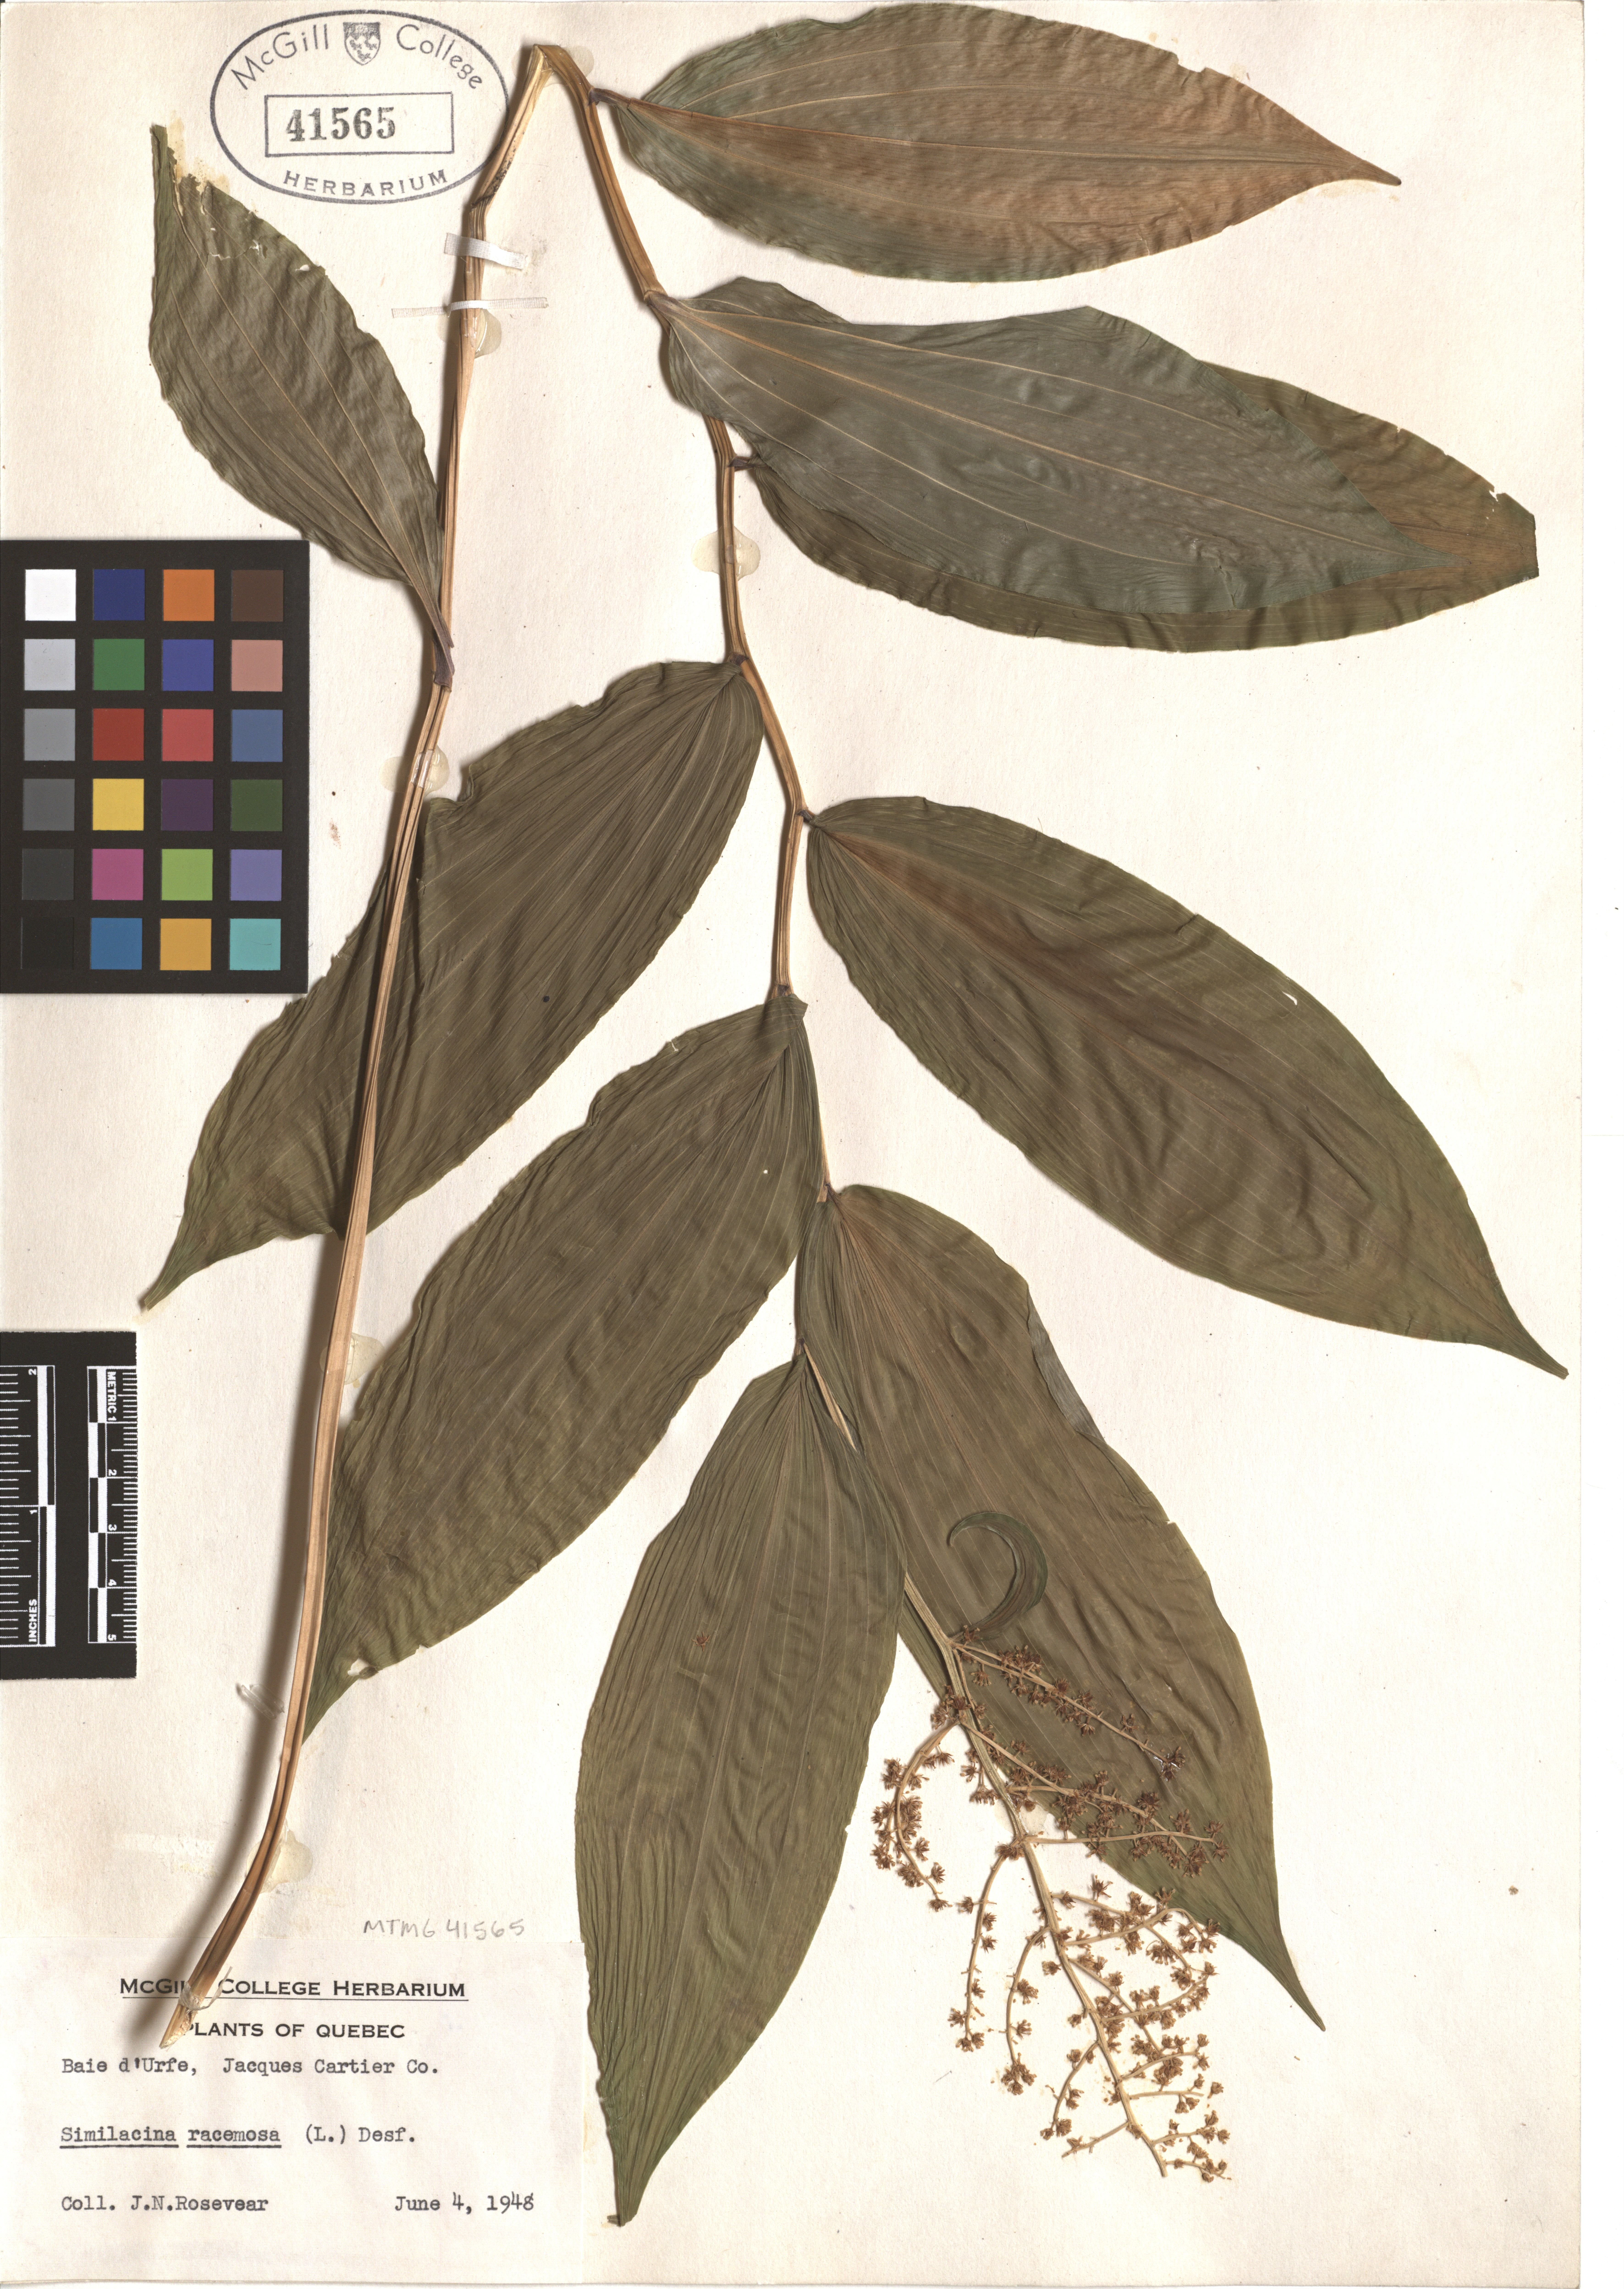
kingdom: Plantae
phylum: Tracheophyta
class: Liliopsida
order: Asparagales
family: Asparagaceae
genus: Maianthemum
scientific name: Maianthemum racemosum
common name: False spikenard
